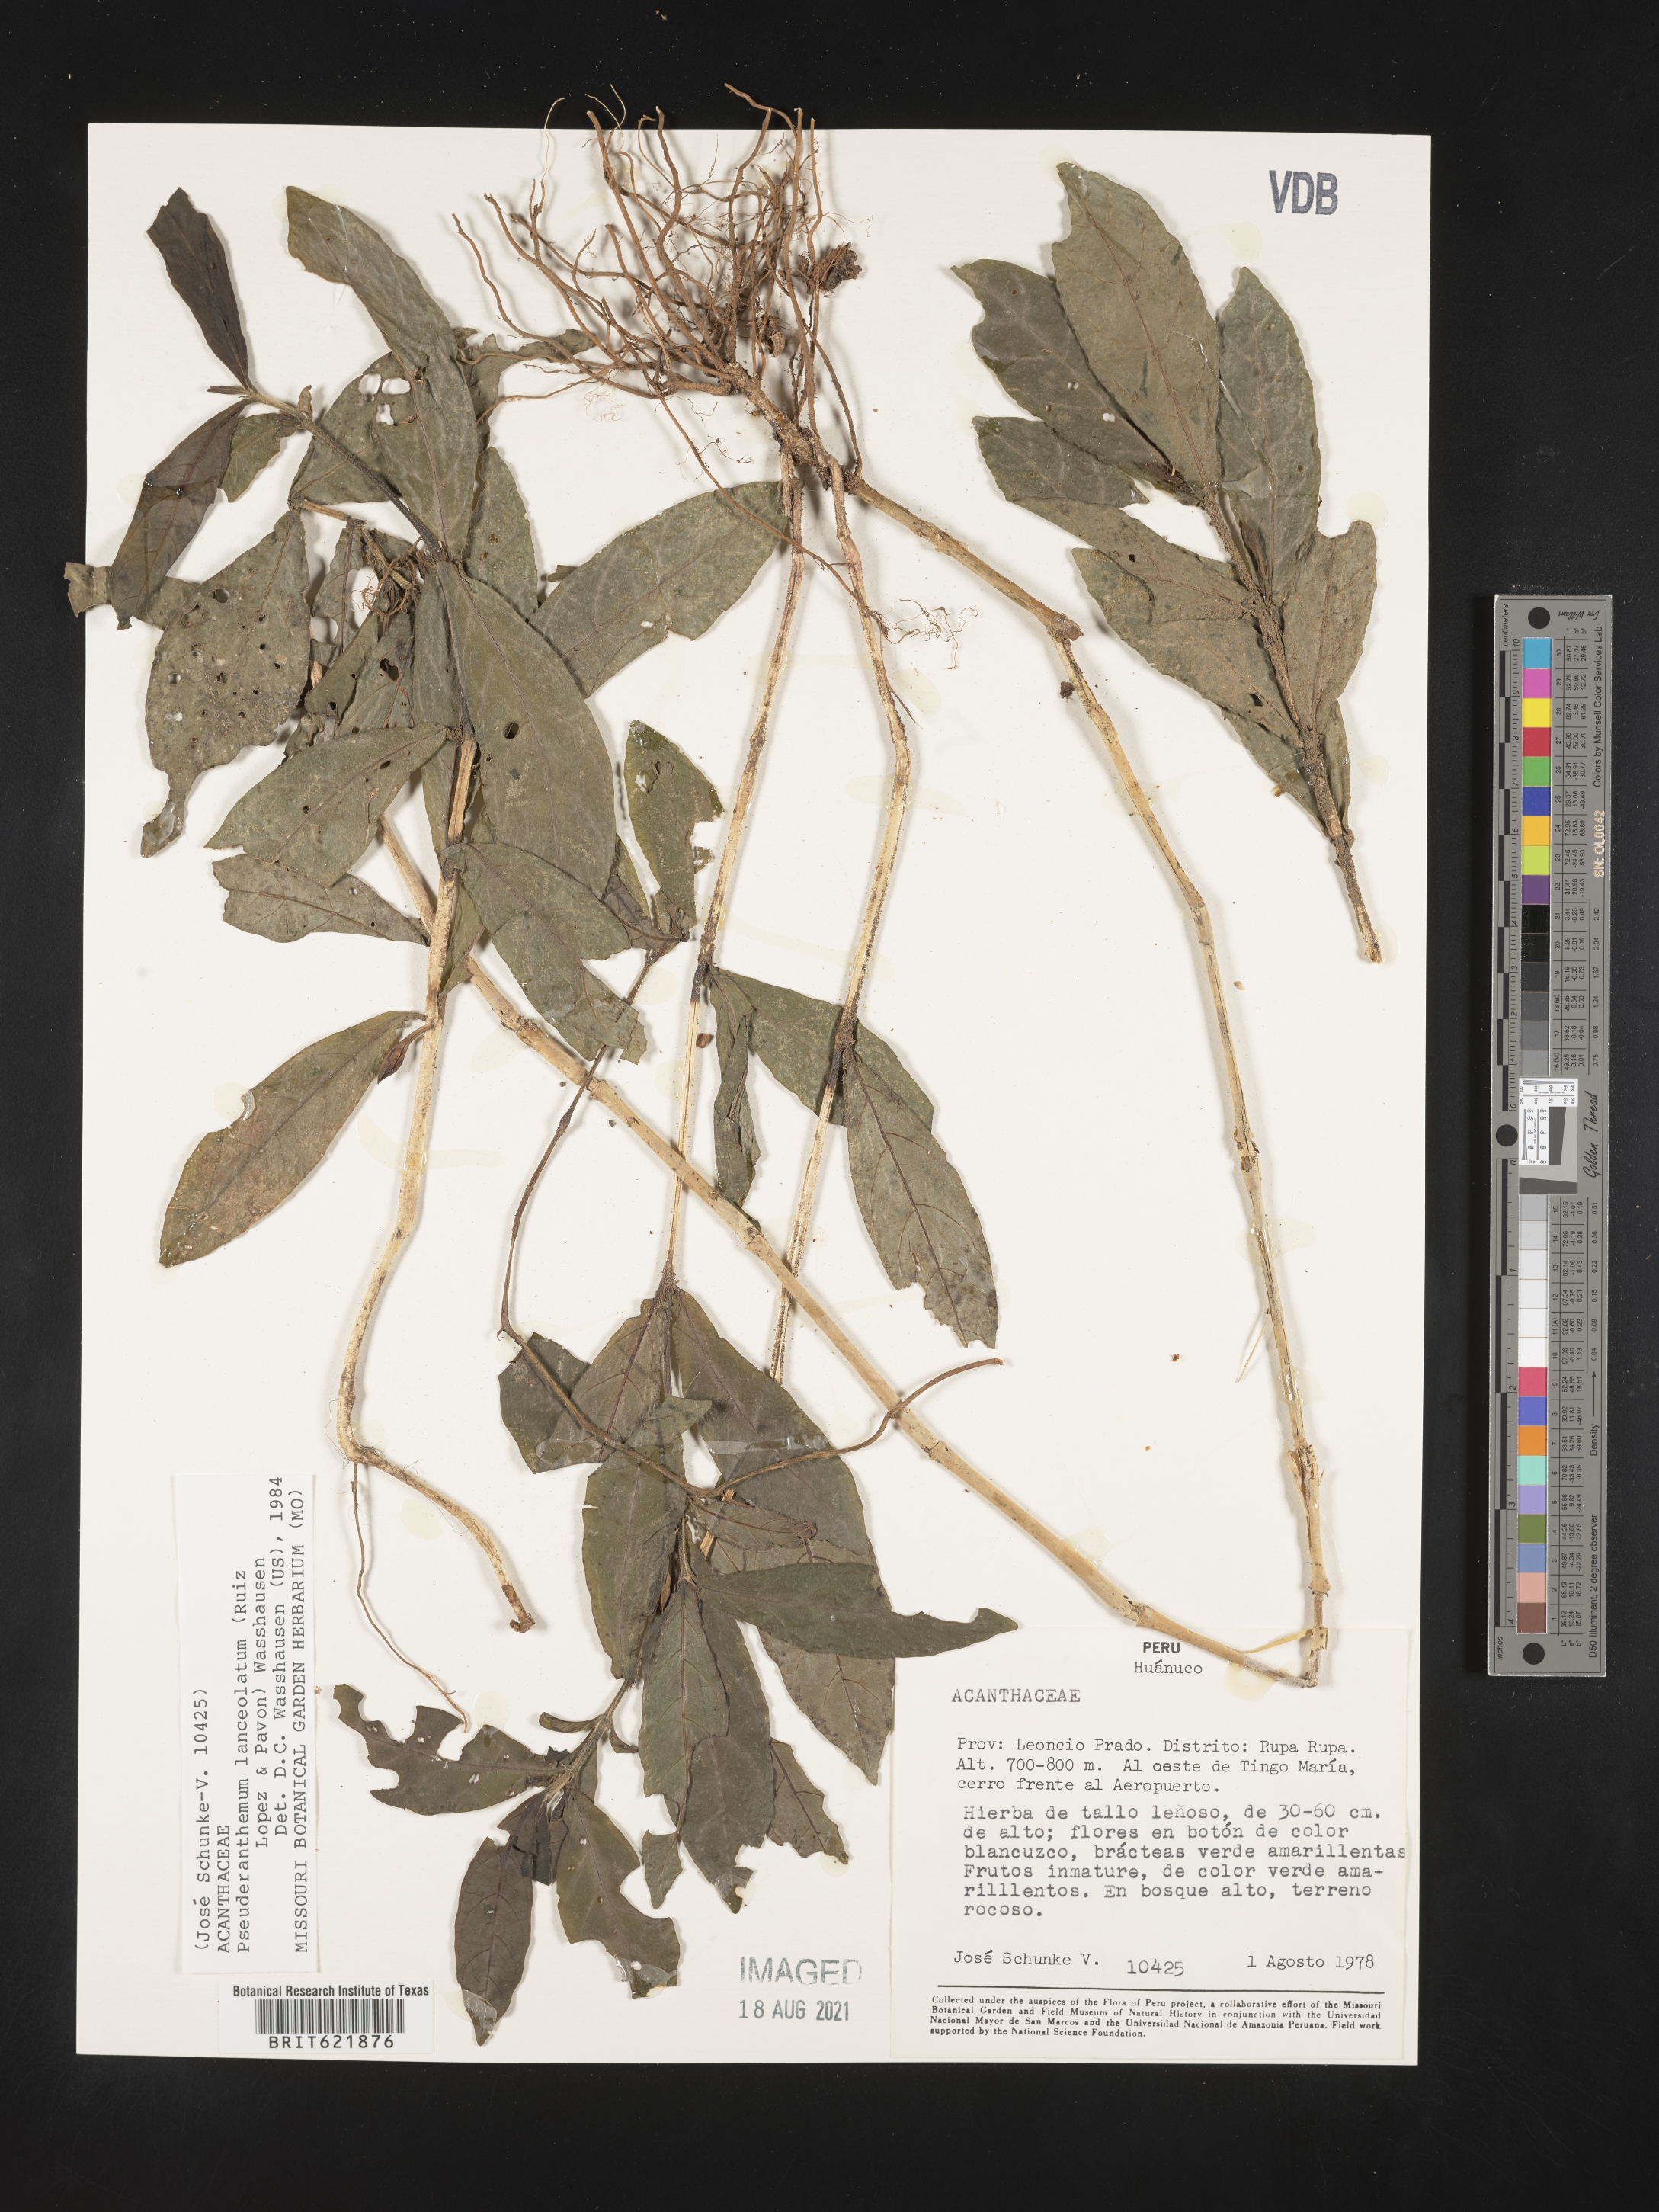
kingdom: Plantae
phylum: Tracheophyta
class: Magnoliopsida
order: Lamiales
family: Acanthaceae
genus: Pseuderanthemum
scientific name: Pseuderanthemum lanceolatum
